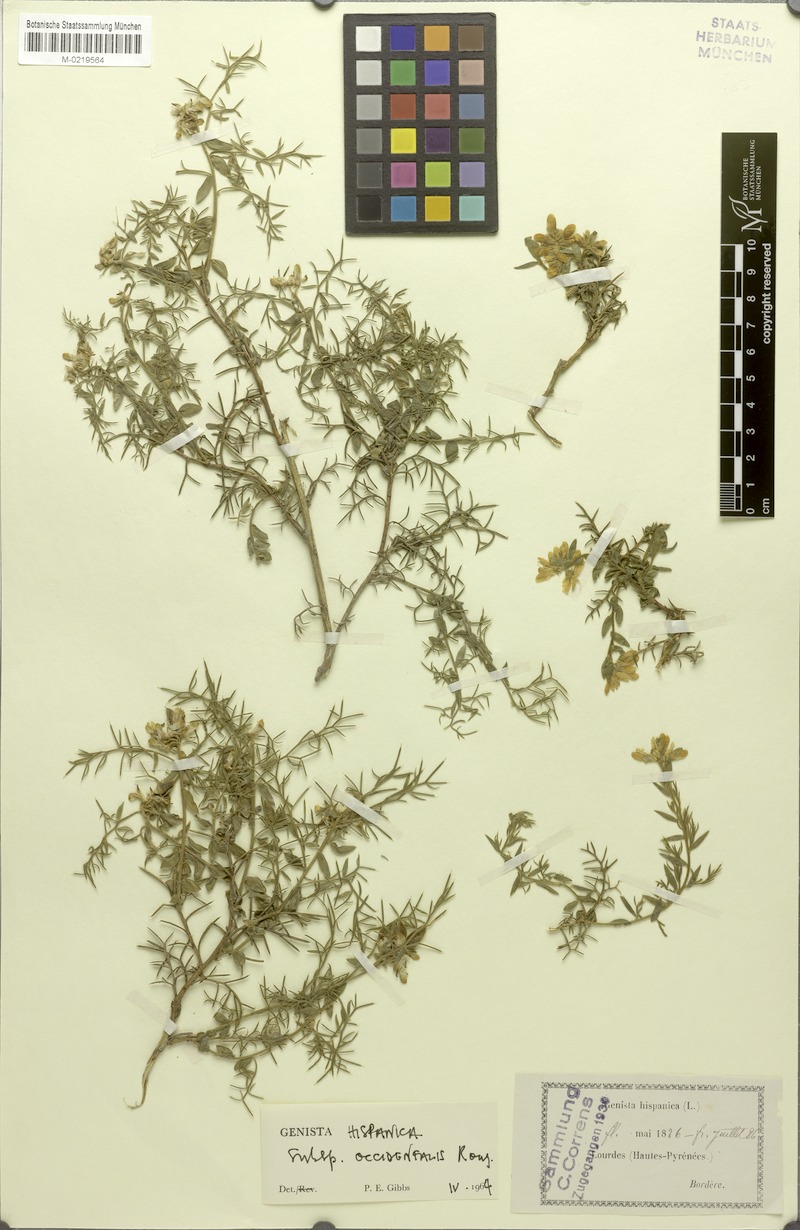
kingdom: Plantae
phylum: Tracheophyta
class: Magnoliopsida
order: Fabales
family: Fabaceae
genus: Genista
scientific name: Genista hispanica
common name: Spanish gorse
